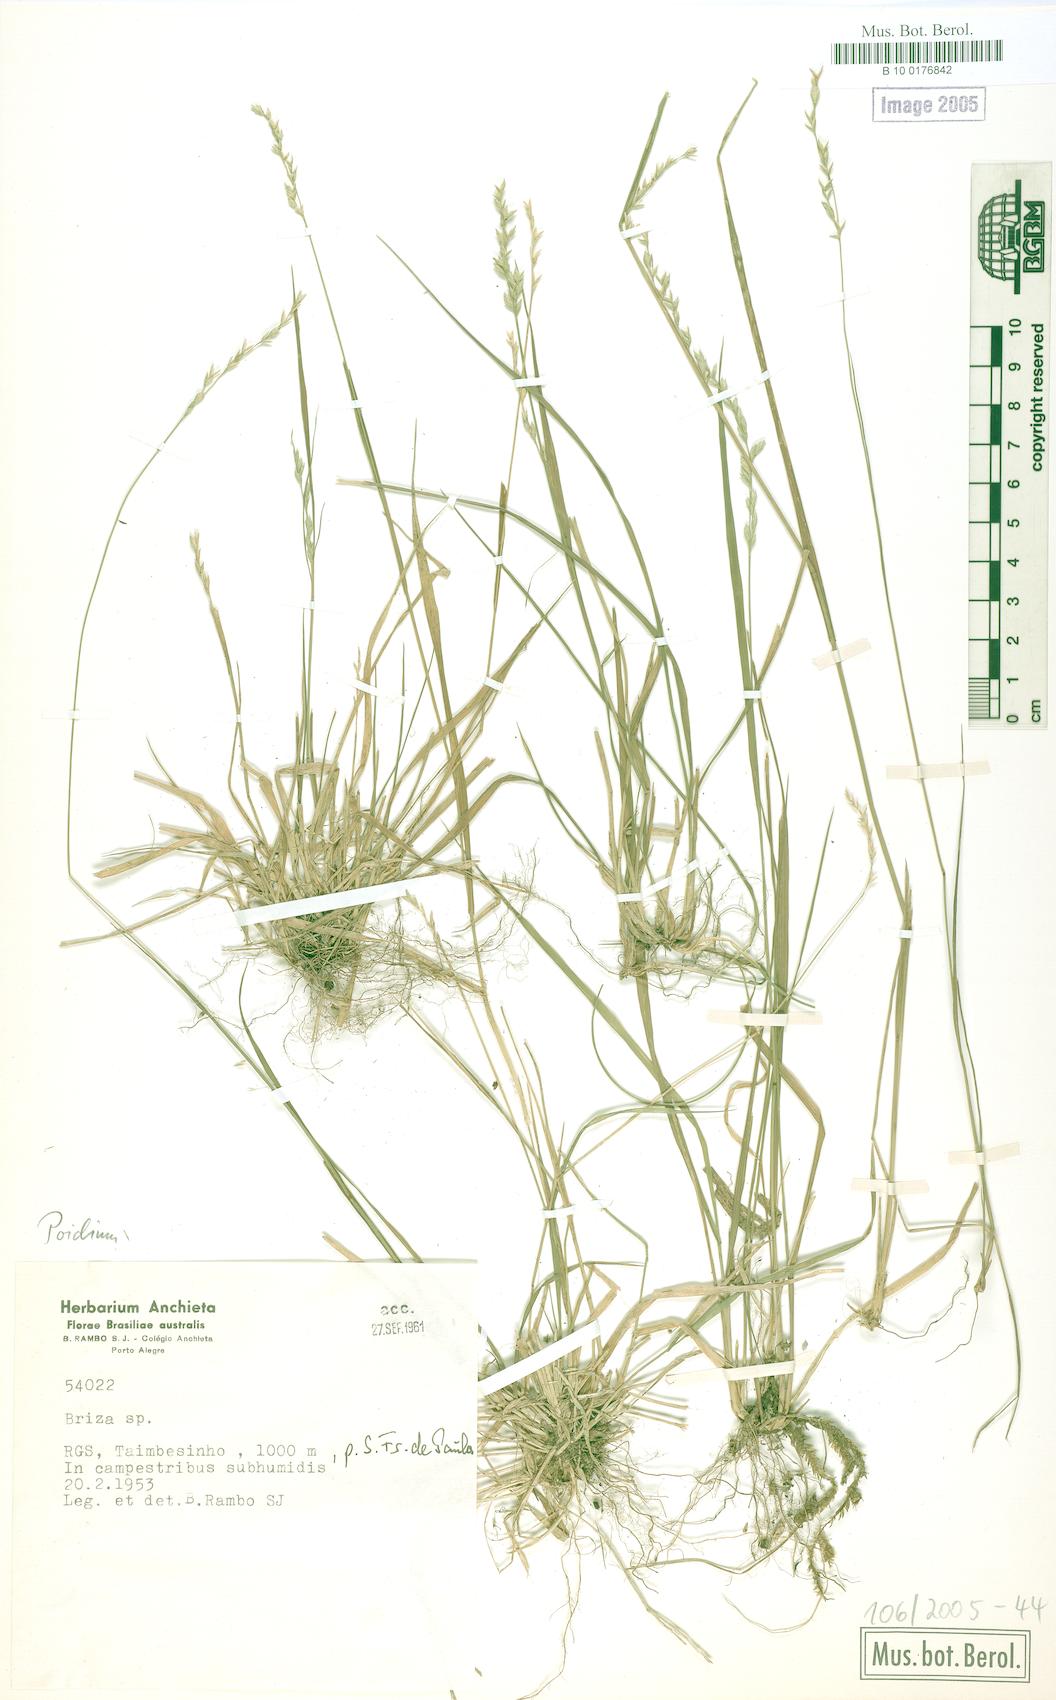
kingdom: Plantae
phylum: Tracheophyta
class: Liliopsida
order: Poales
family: Poaceae
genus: Poidium
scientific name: Poidium
